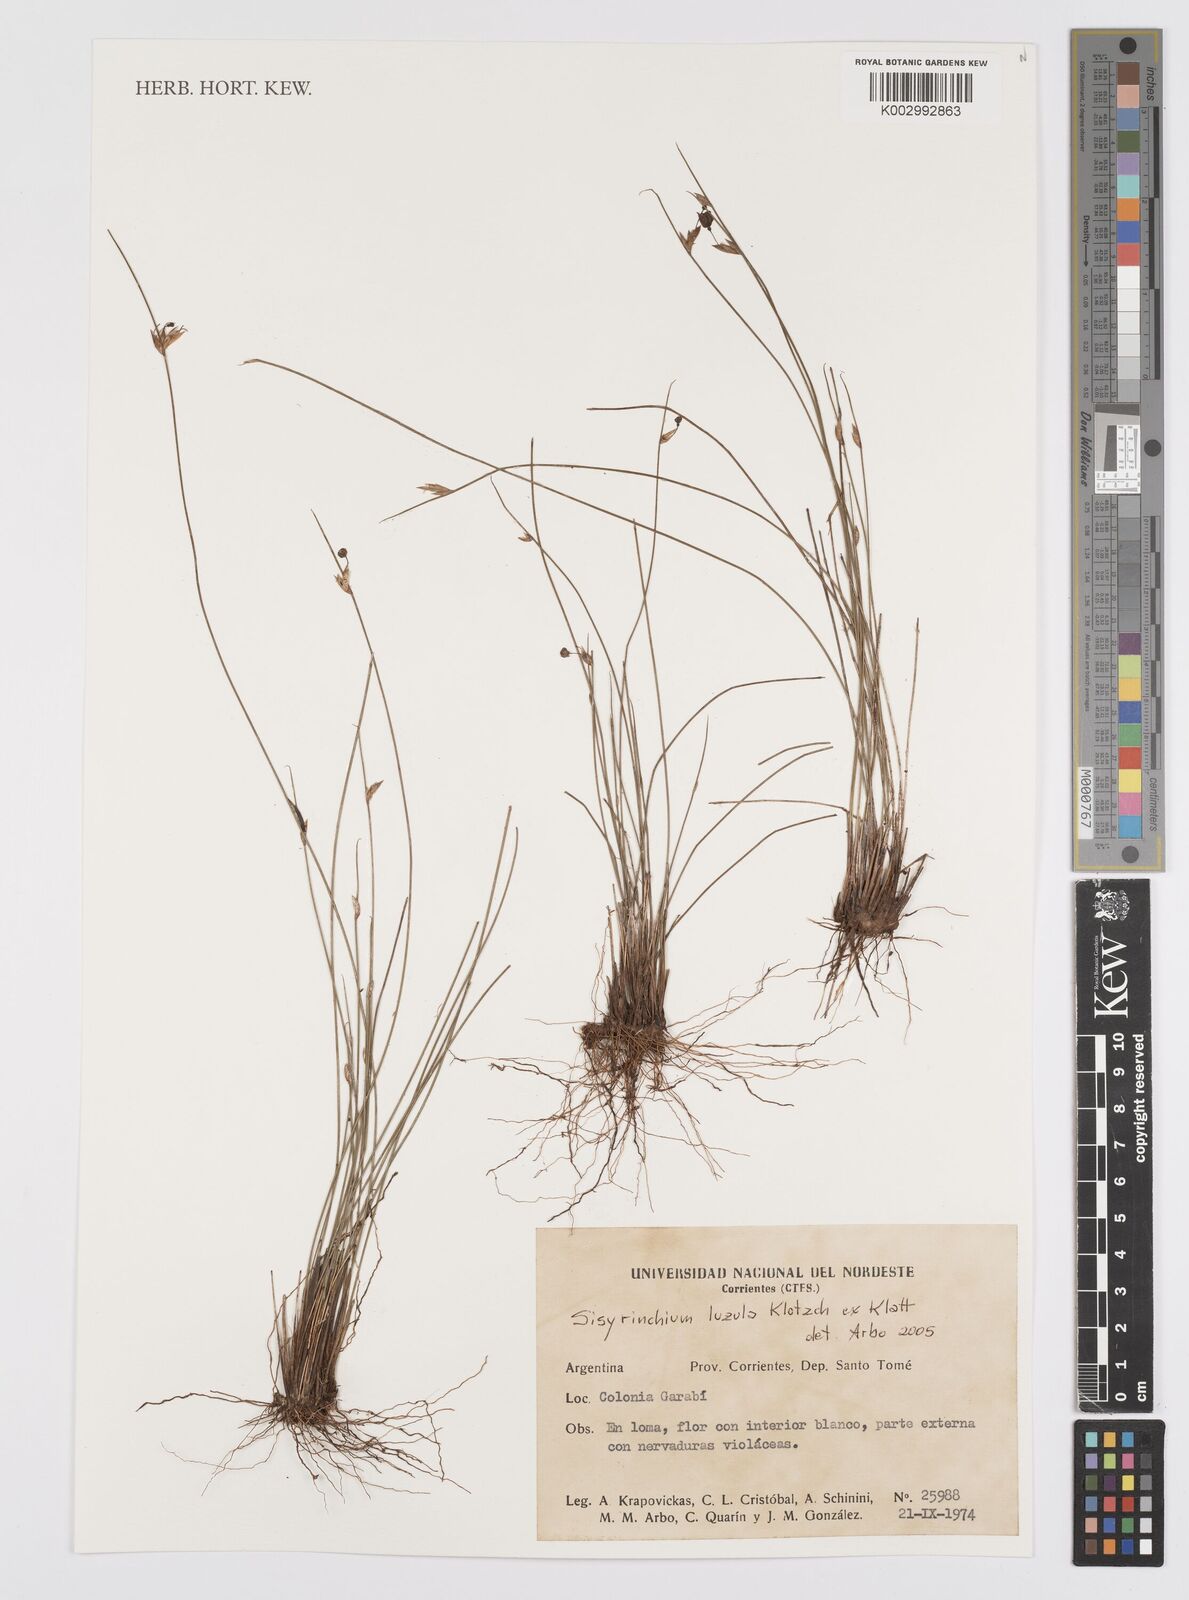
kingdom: Plantae
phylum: Tracheophyta
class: Liliopsida
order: Asparagales
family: Iridaceae
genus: Sisyrinchium
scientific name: Sisyrinchium luzula
